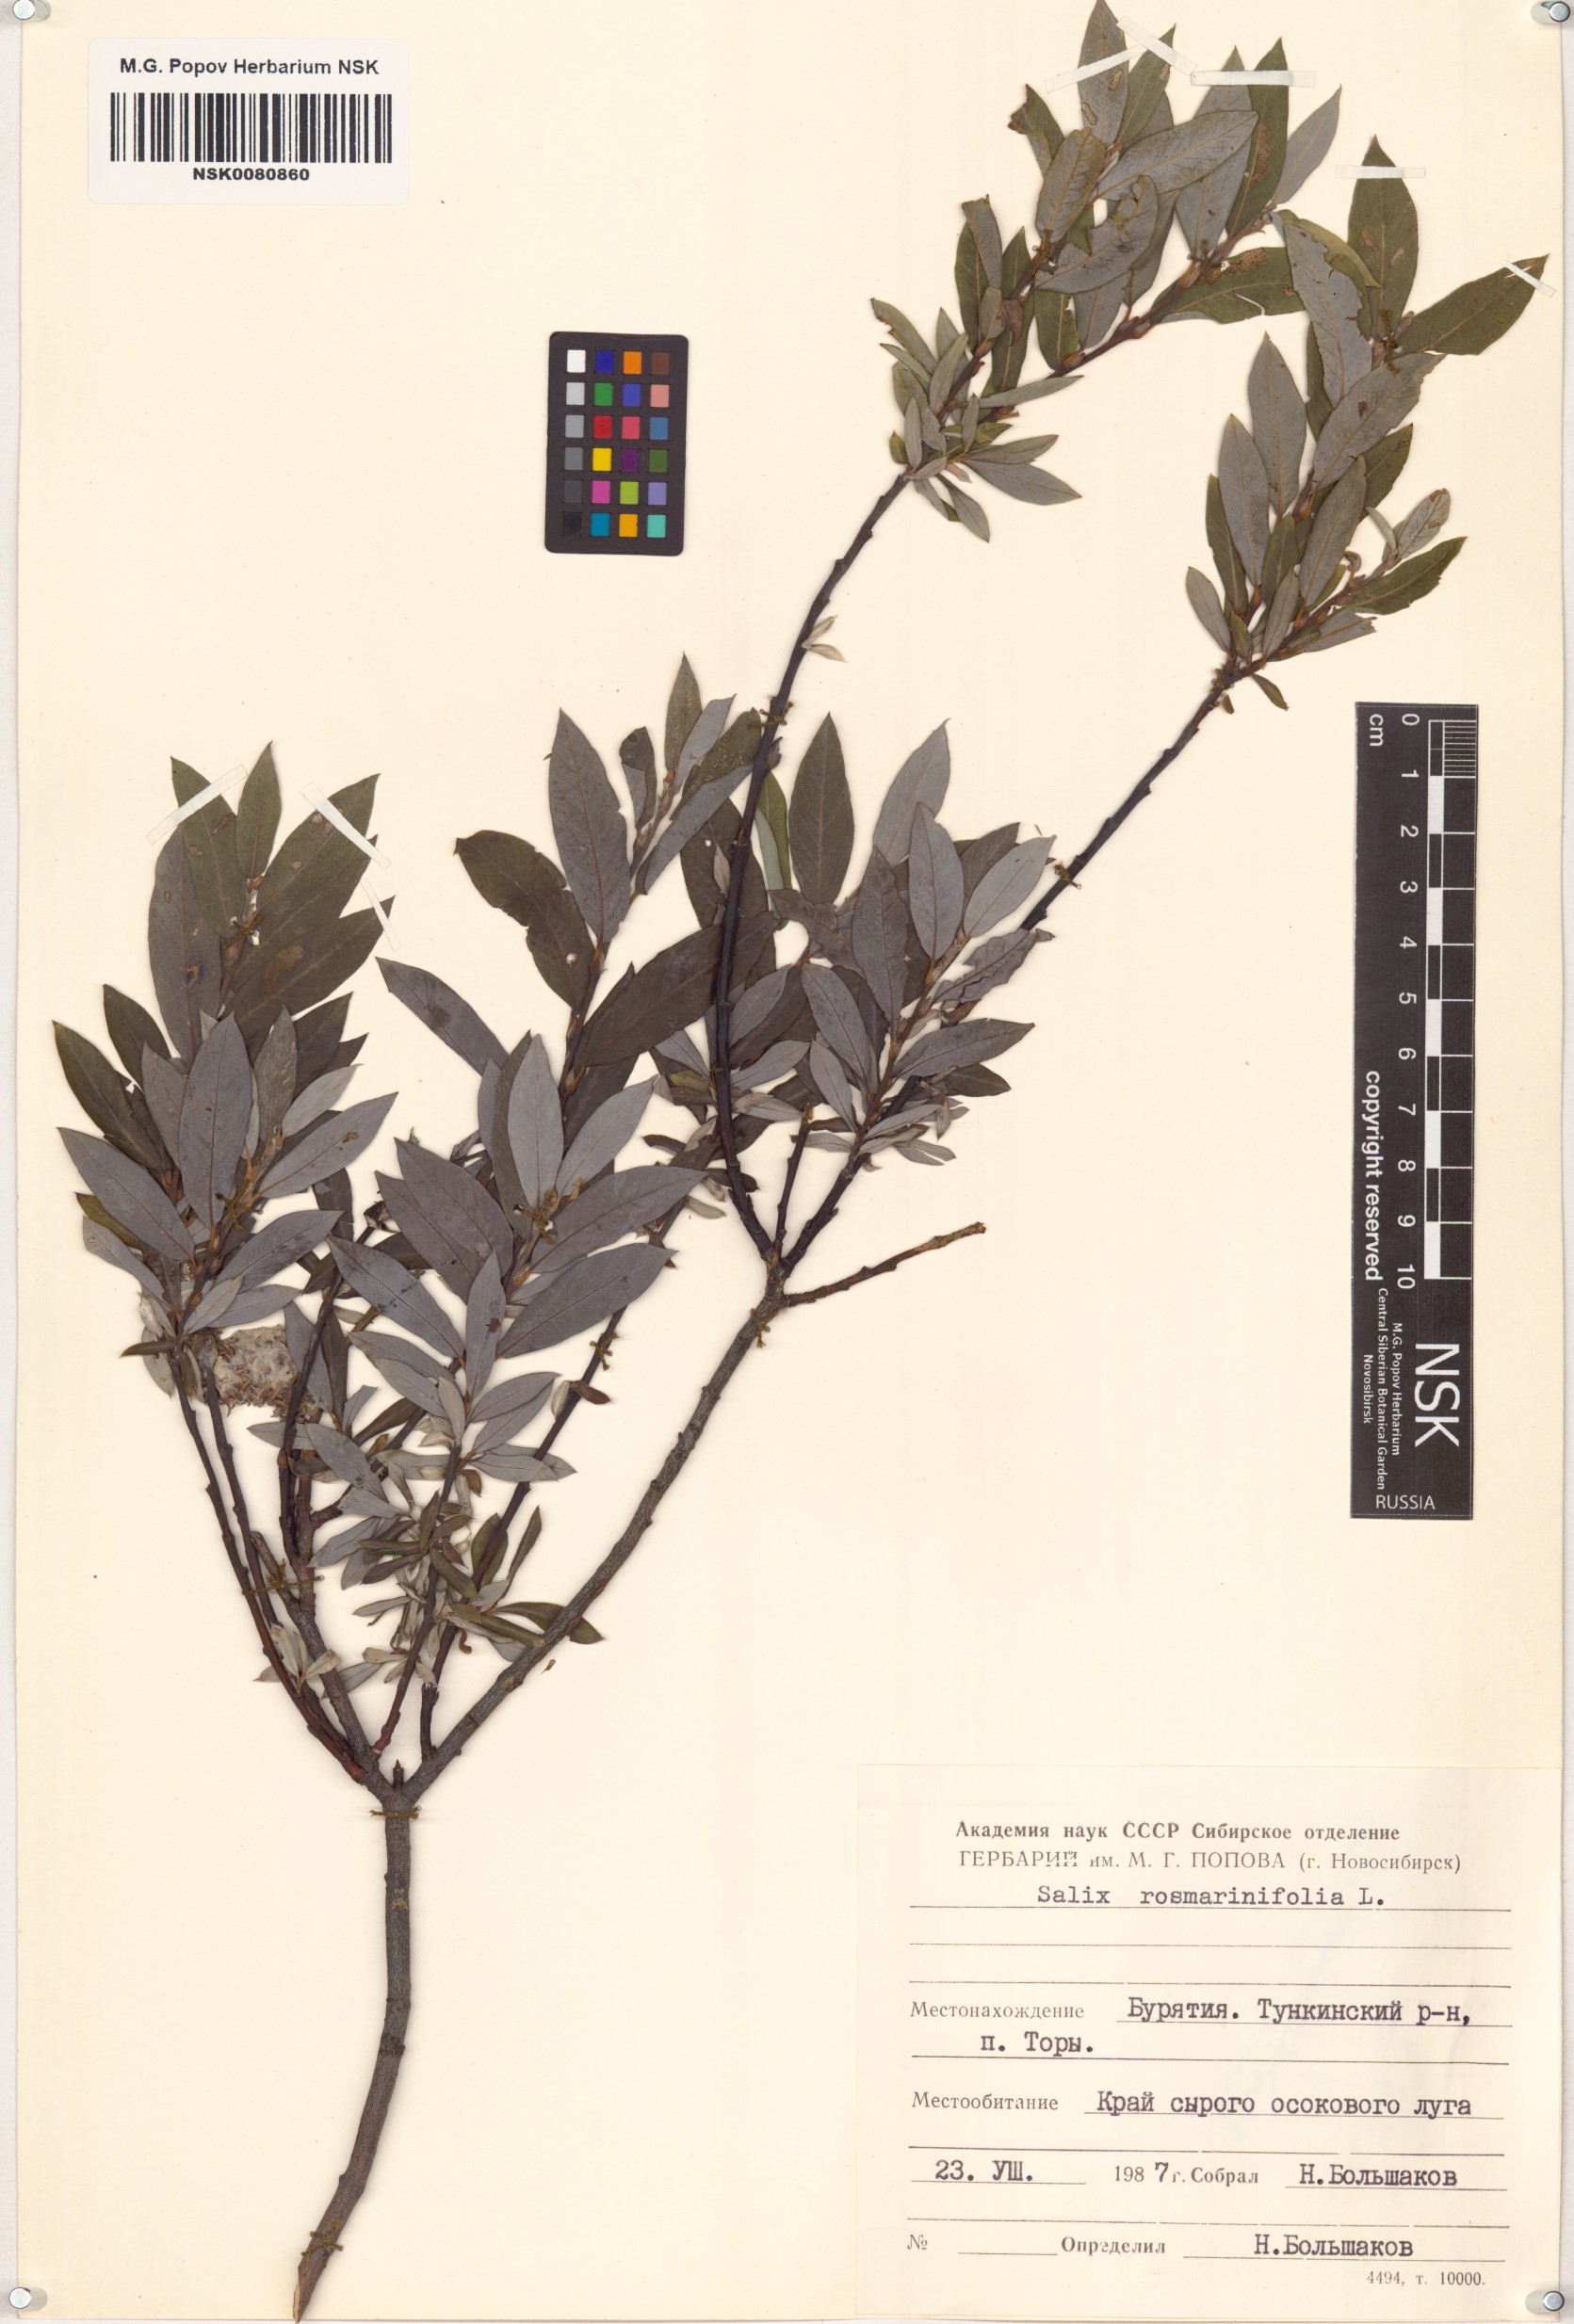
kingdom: Plantae
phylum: Tracheophyta
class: Magnoliopsida
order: Malpighiales
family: Salicaceae
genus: Salix
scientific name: Salix rosmarinifolia
